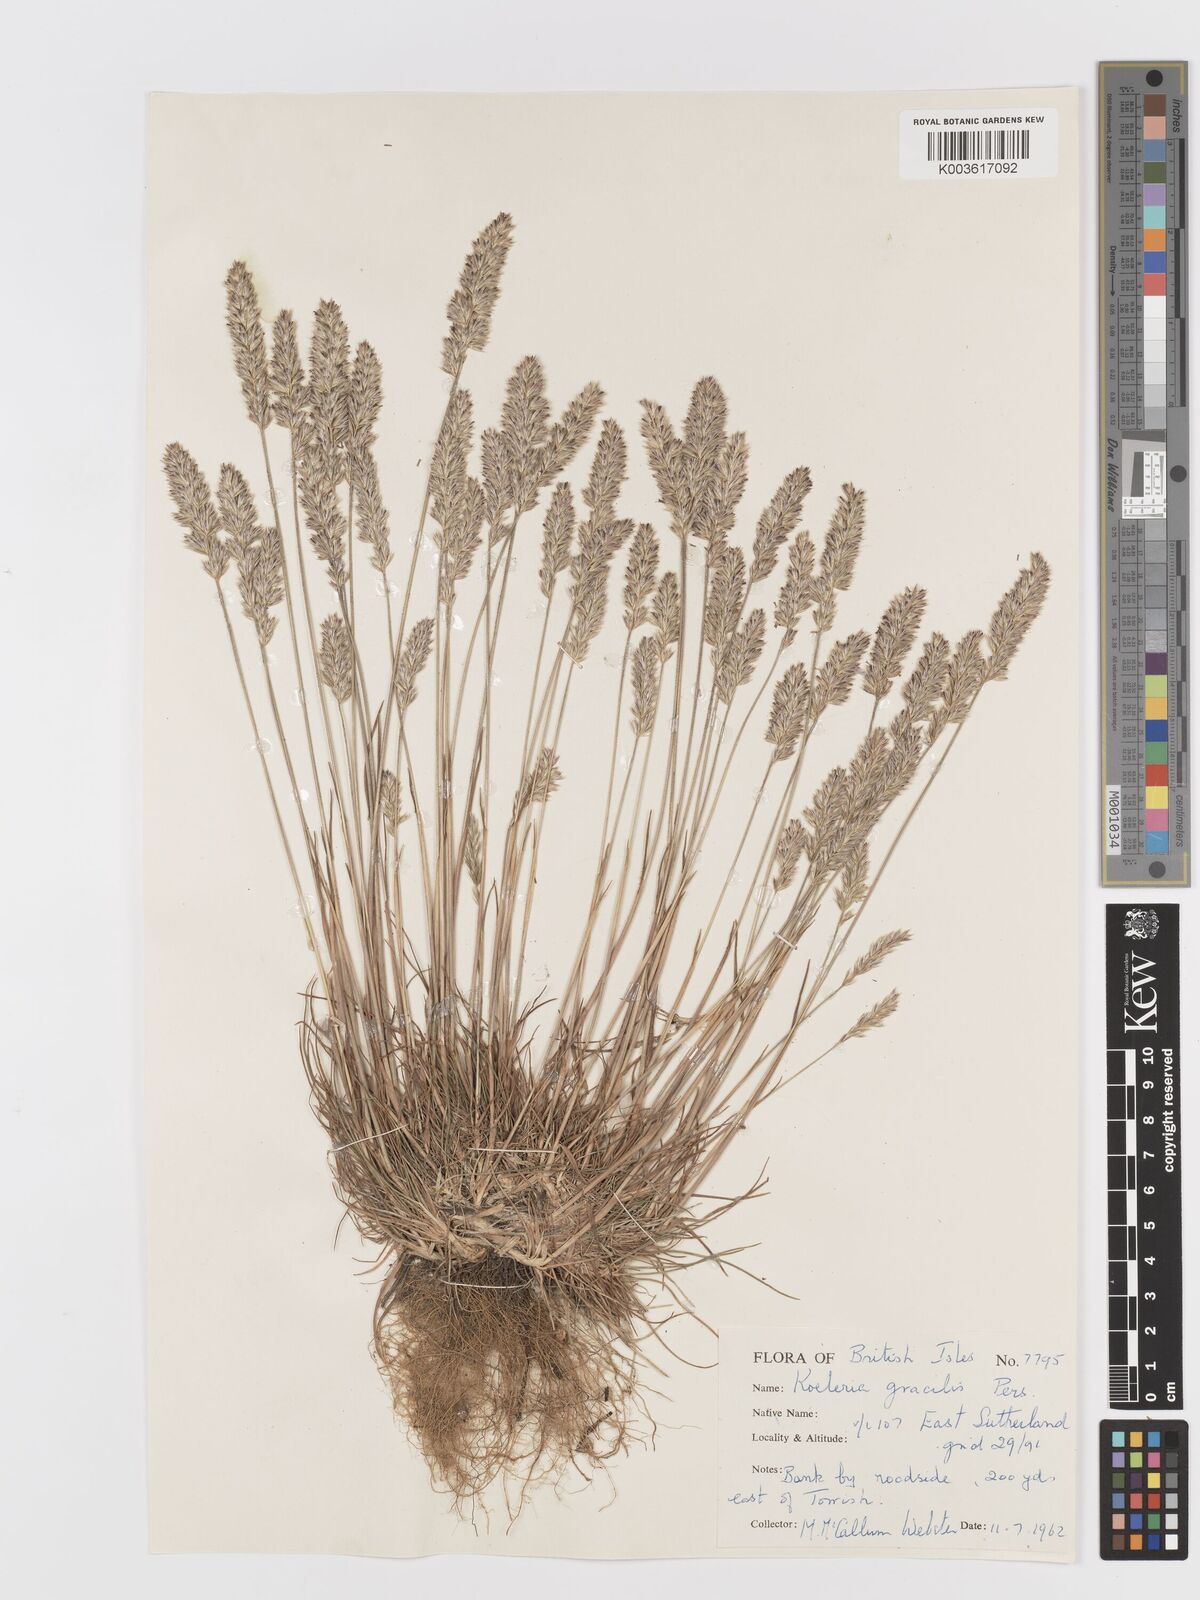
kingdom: Plantae
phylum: Tracheophyta
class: Liliopsida
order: Poales
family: Poaceae
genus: Koeleria
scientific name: Koeleria macrantha
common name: Crested hair-grass
